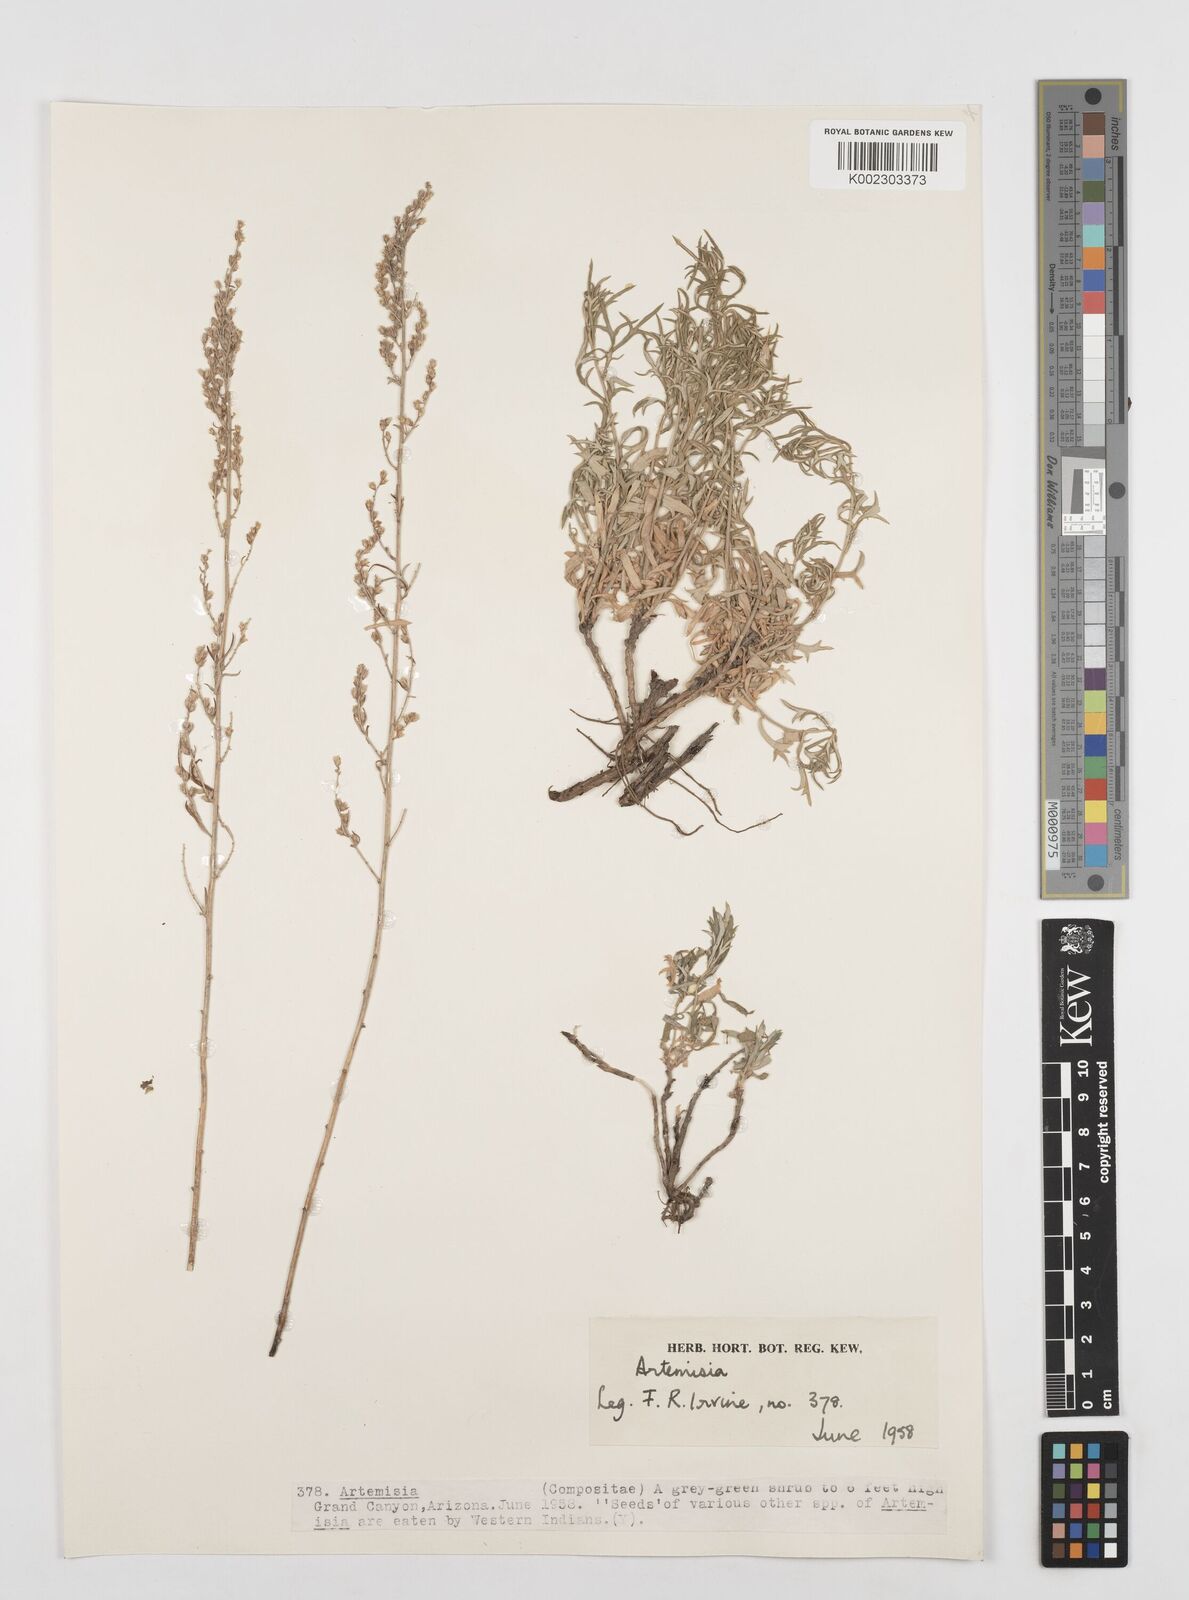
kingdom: Plantae
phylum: Tracheophyta
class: Magnoliopsida
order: Asterales
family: Asteraceae
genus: Artemisia
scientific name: Artemisia
